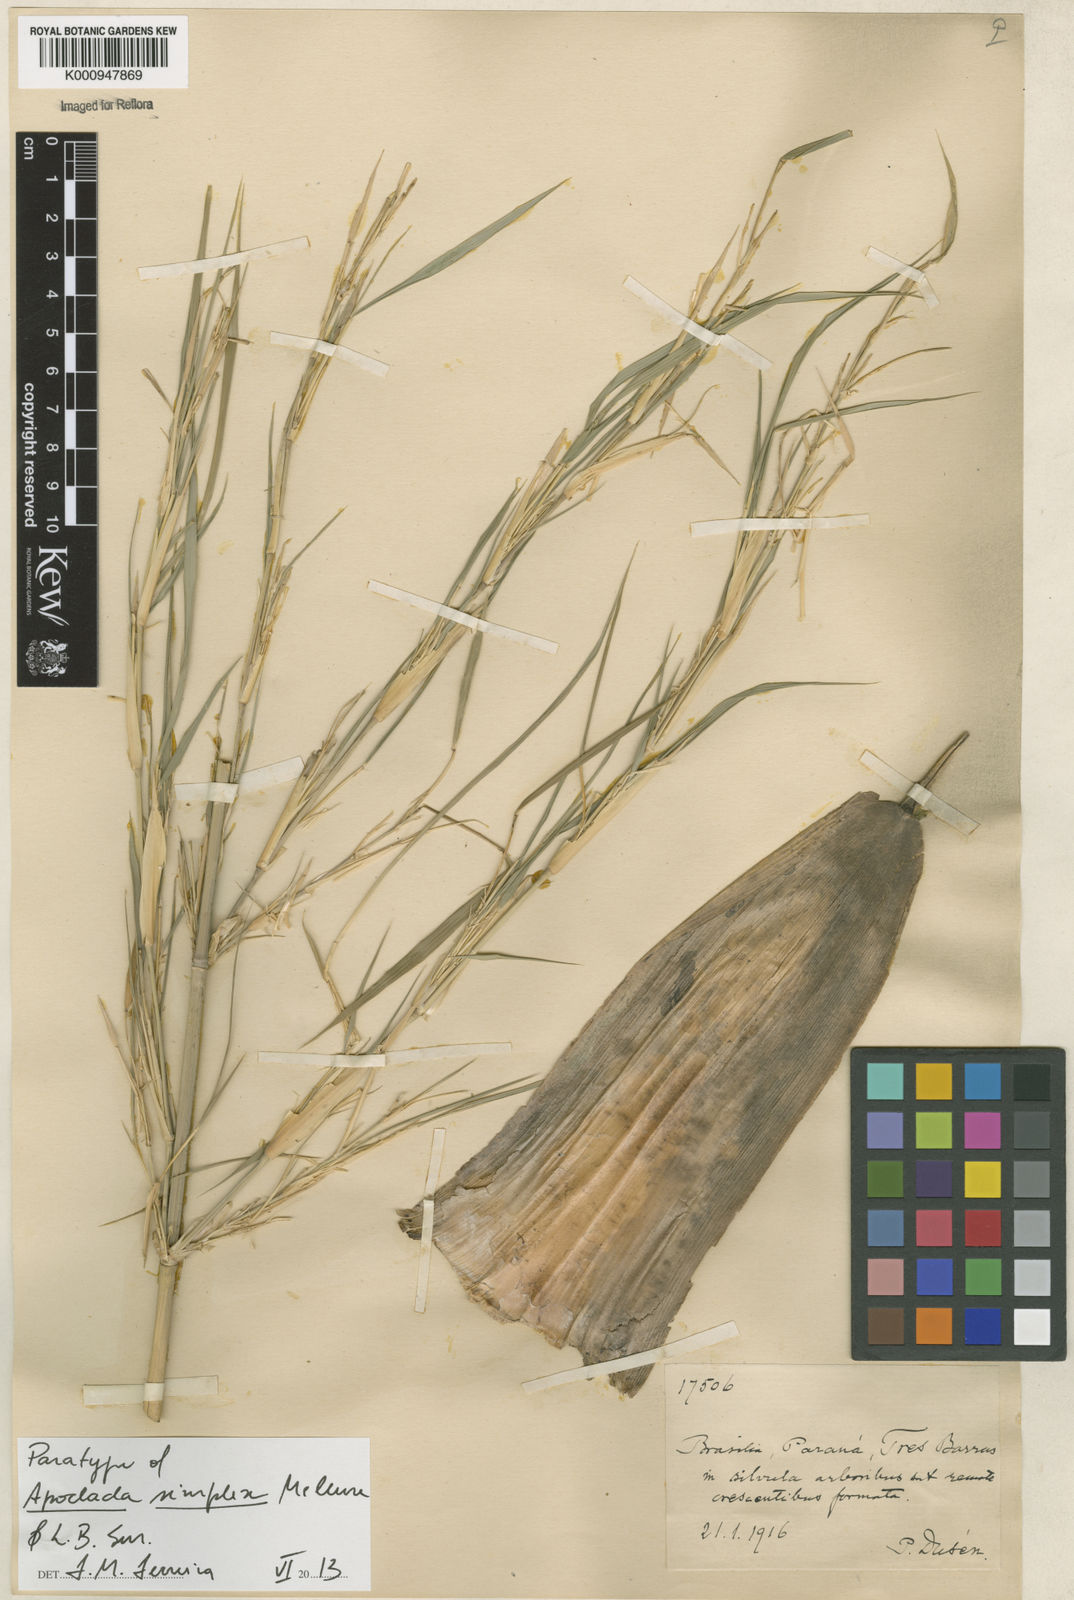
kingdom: Plantae
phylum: Tracheophyta
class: Liliopsida
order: Poales
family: Poaceae
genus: Apoclada
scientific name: Apoclada simplex
